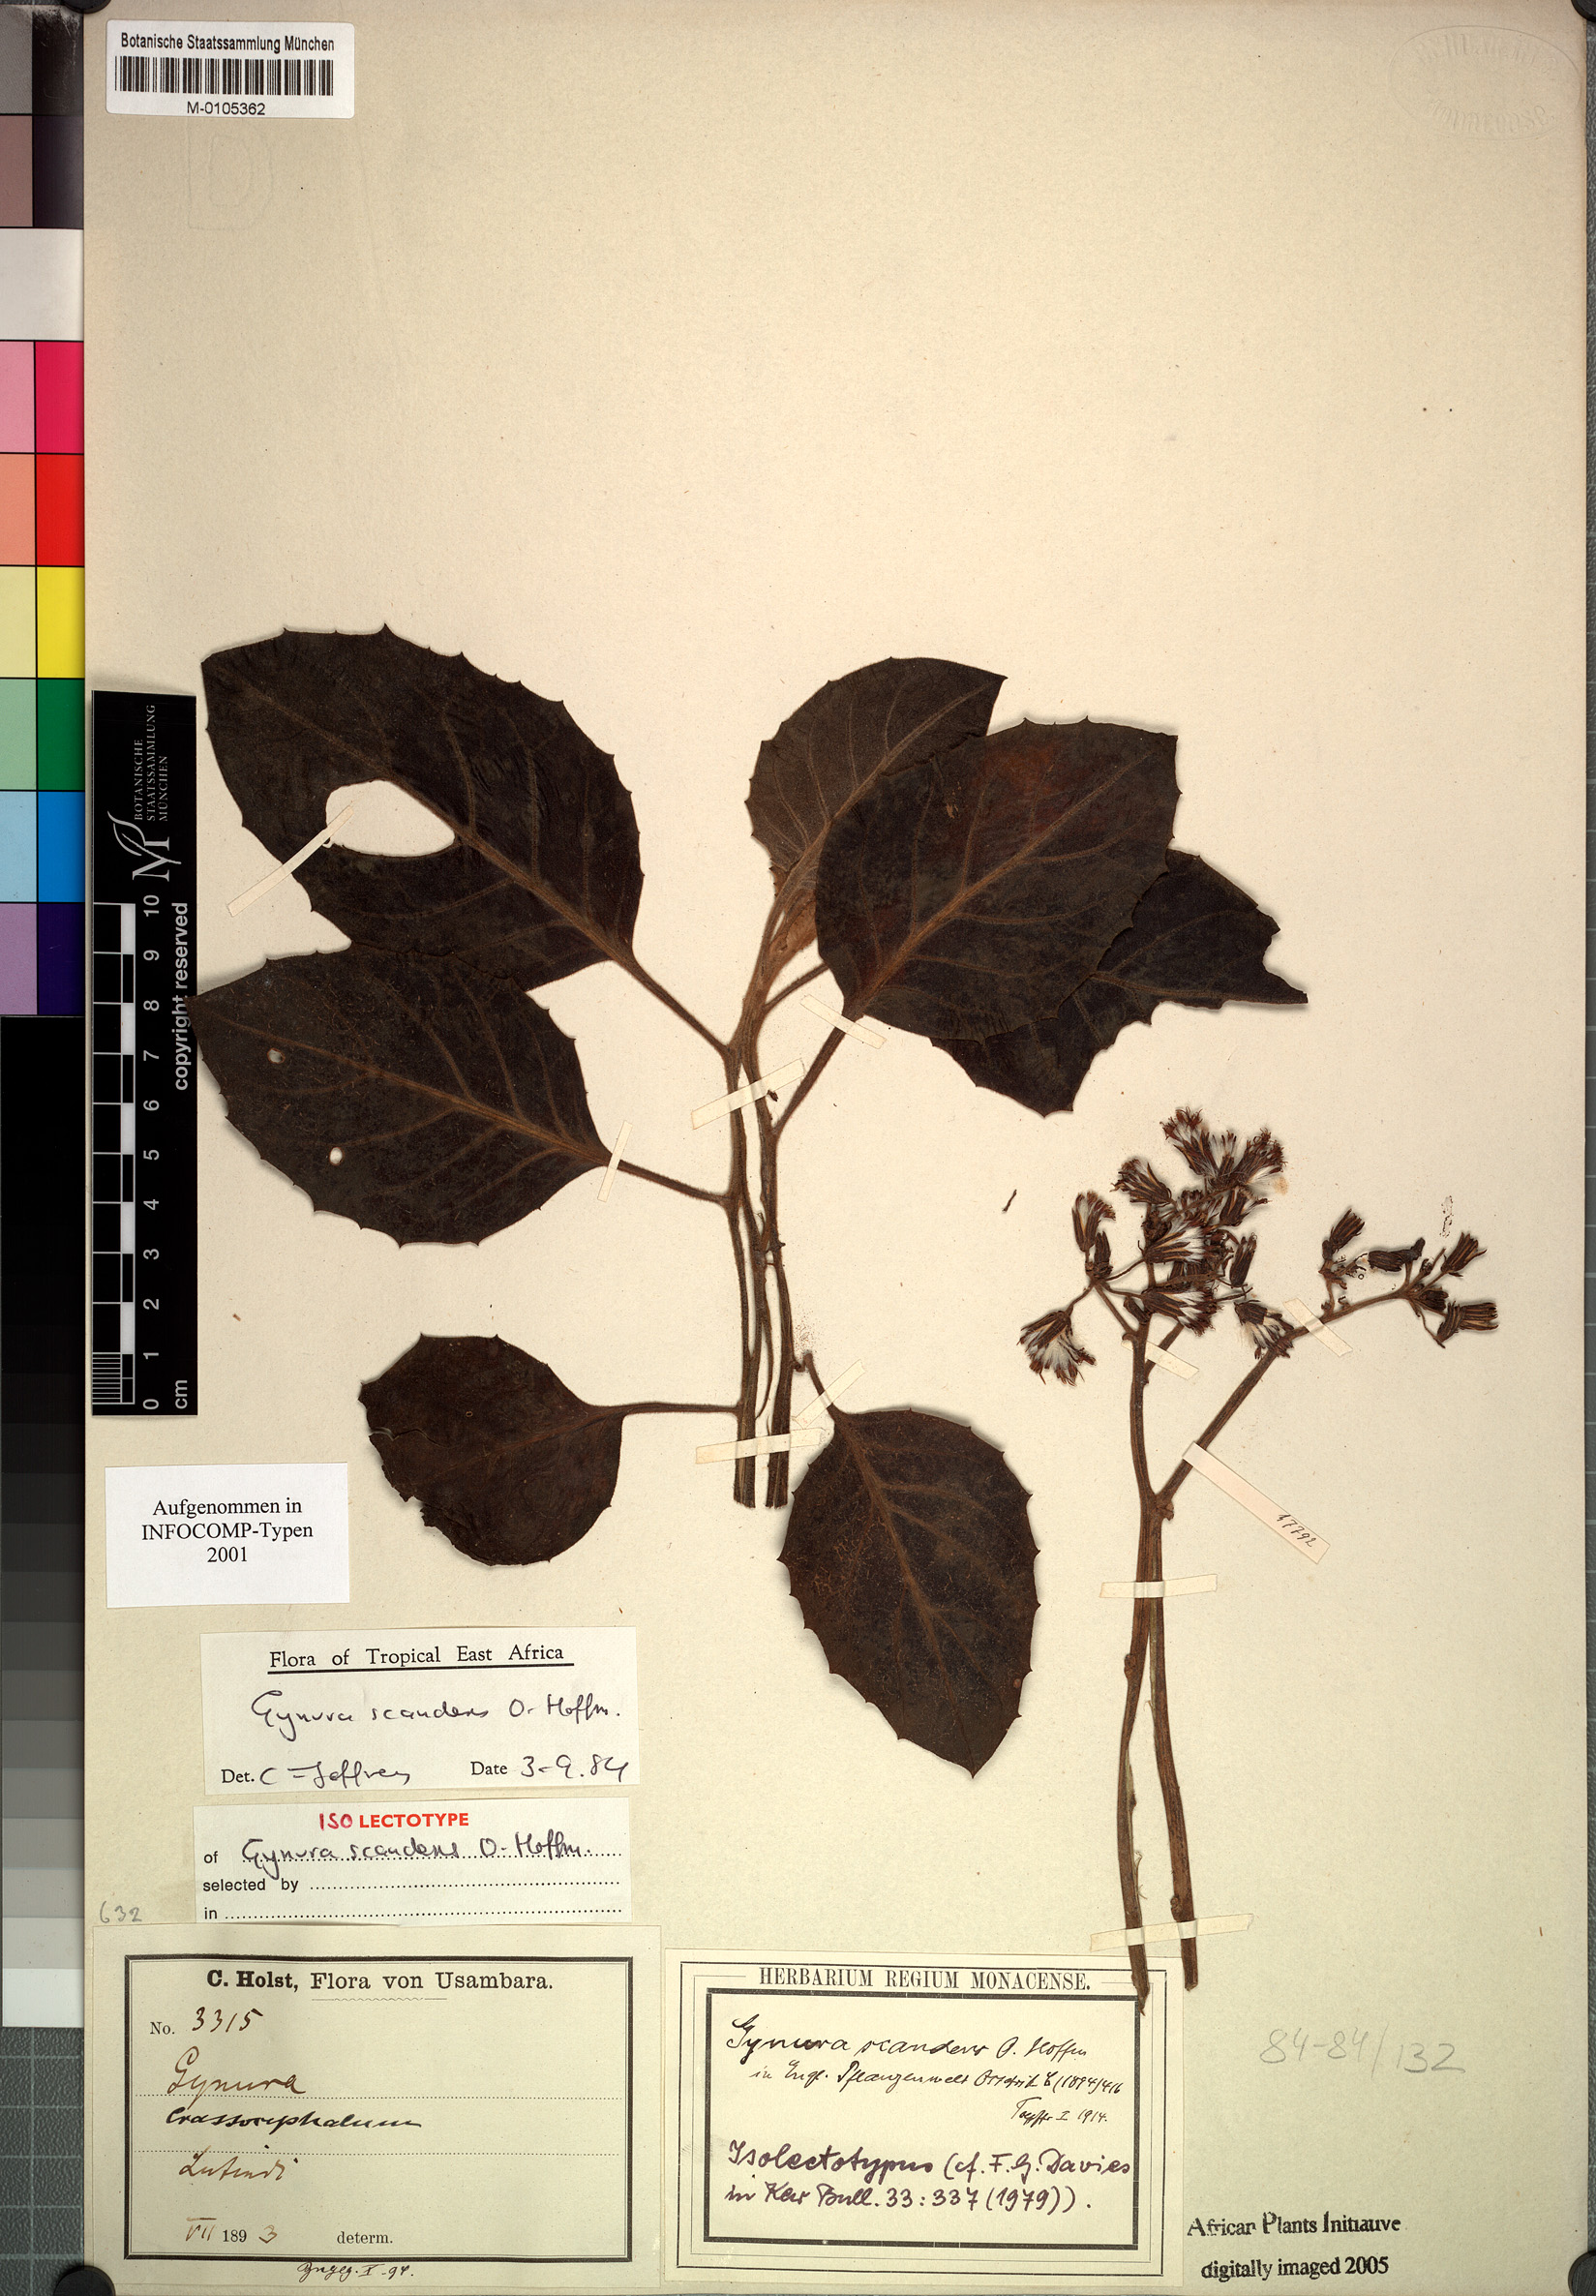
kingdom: Plantae
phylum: Tracheophyta
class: Magnoliopsida
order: Asterales
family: Asteraceae
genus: Gynura
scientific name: Gynura scandens
